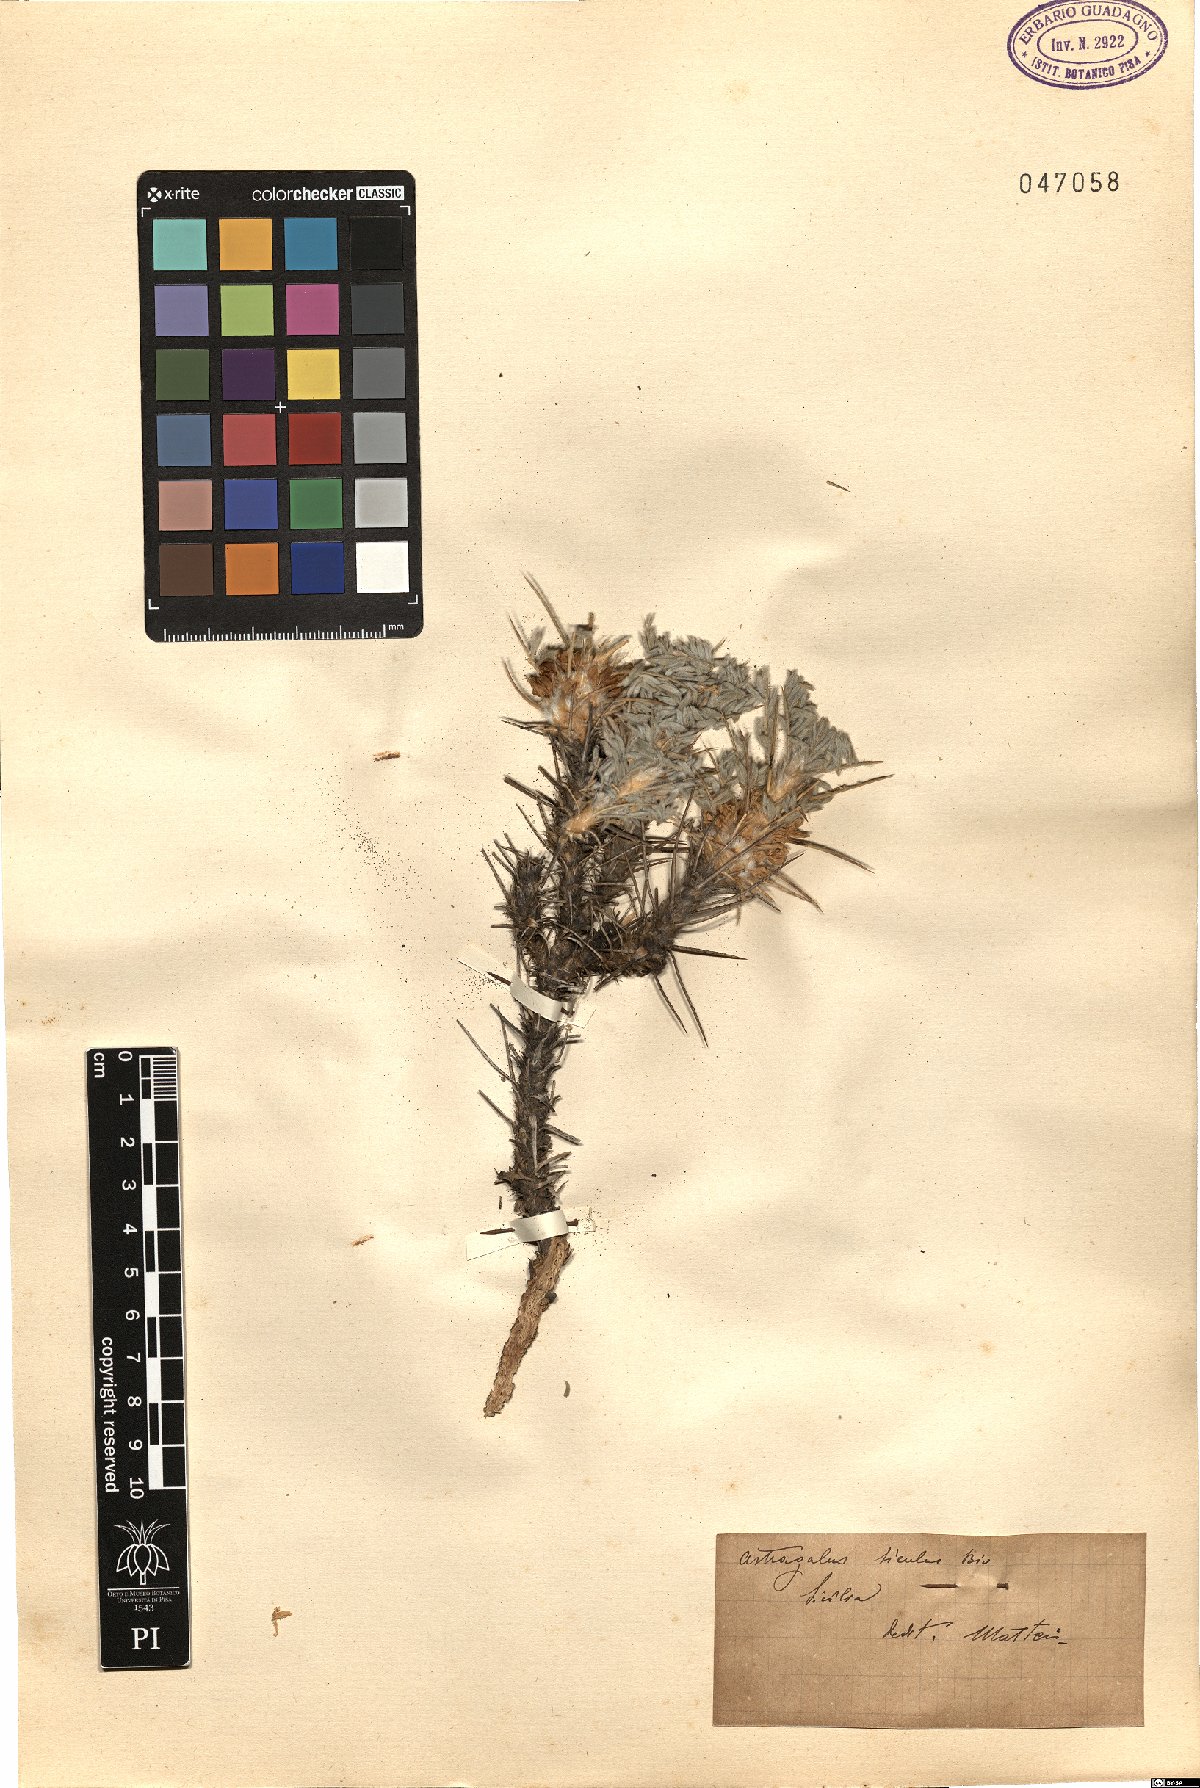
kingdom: Plantae
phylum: Tracheophyta
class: Magnoliopsida
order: Fabales
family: Fabaceae
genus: Astragalus
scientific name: Astragalus siculus
